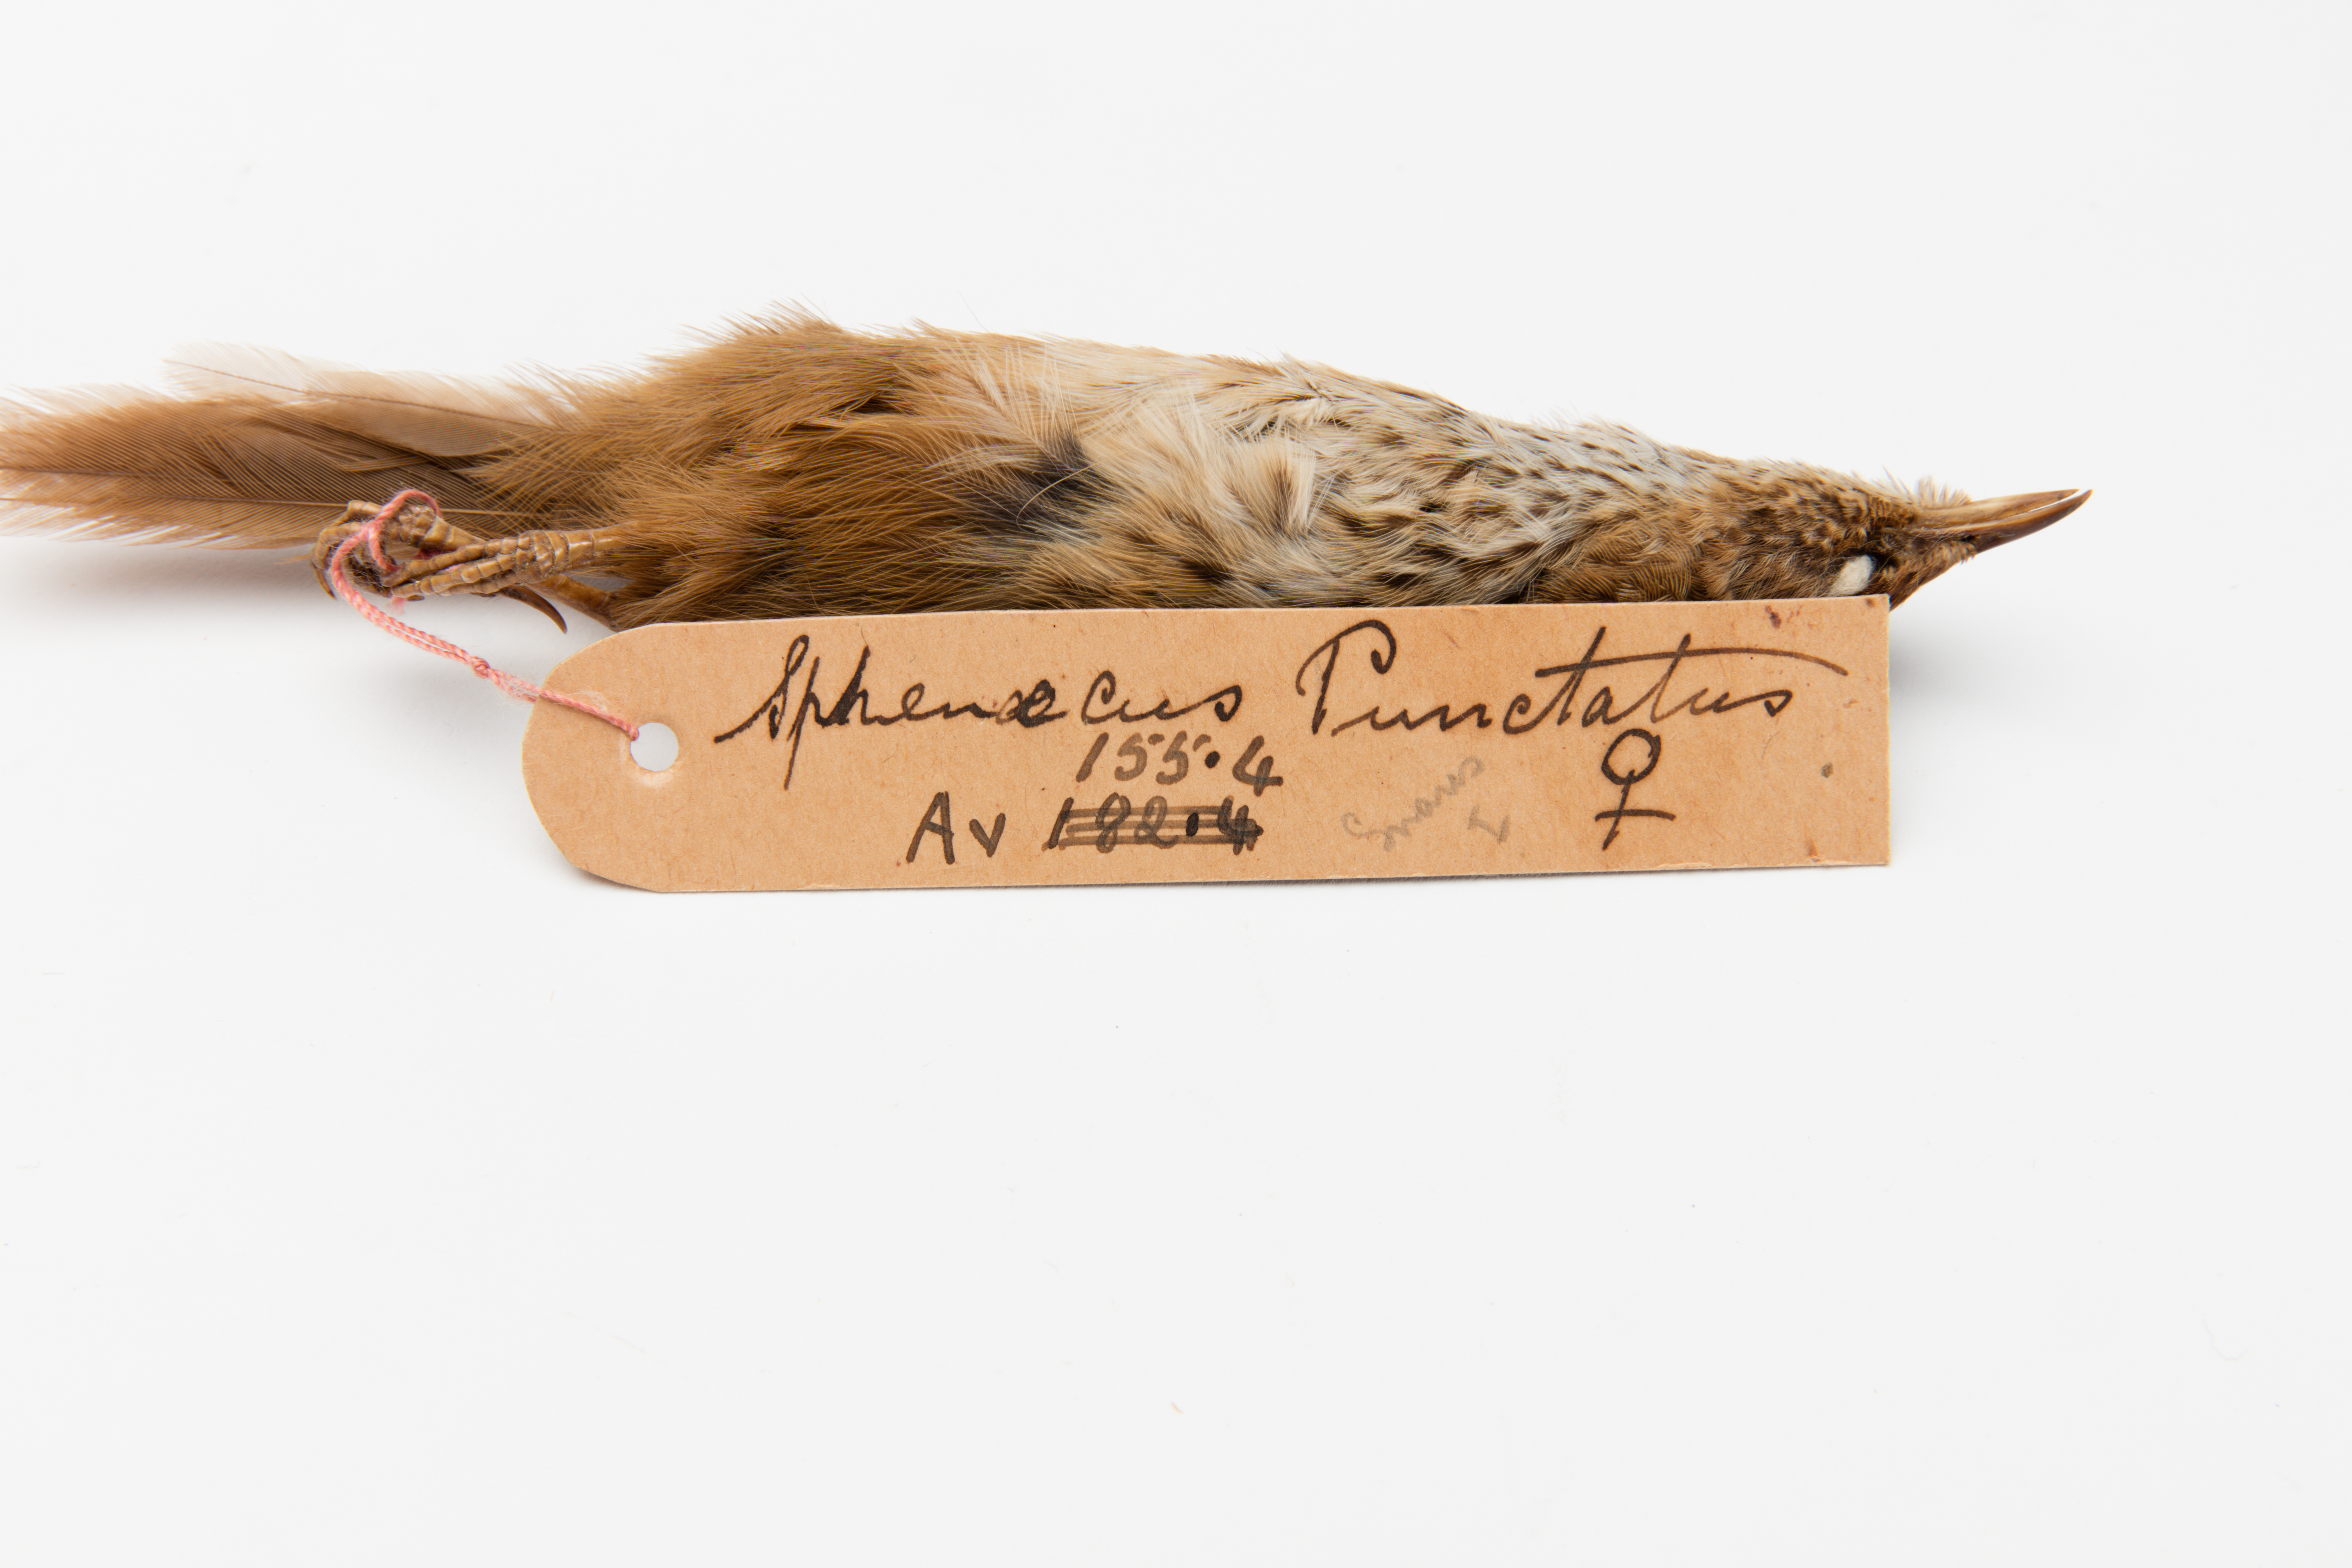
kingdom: Animalia
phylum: Chordata
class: Aves
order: Passeriformes
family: Locustellidae
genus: Megalurus
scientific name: Megalurus punctatus
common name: New zealand fernbird
